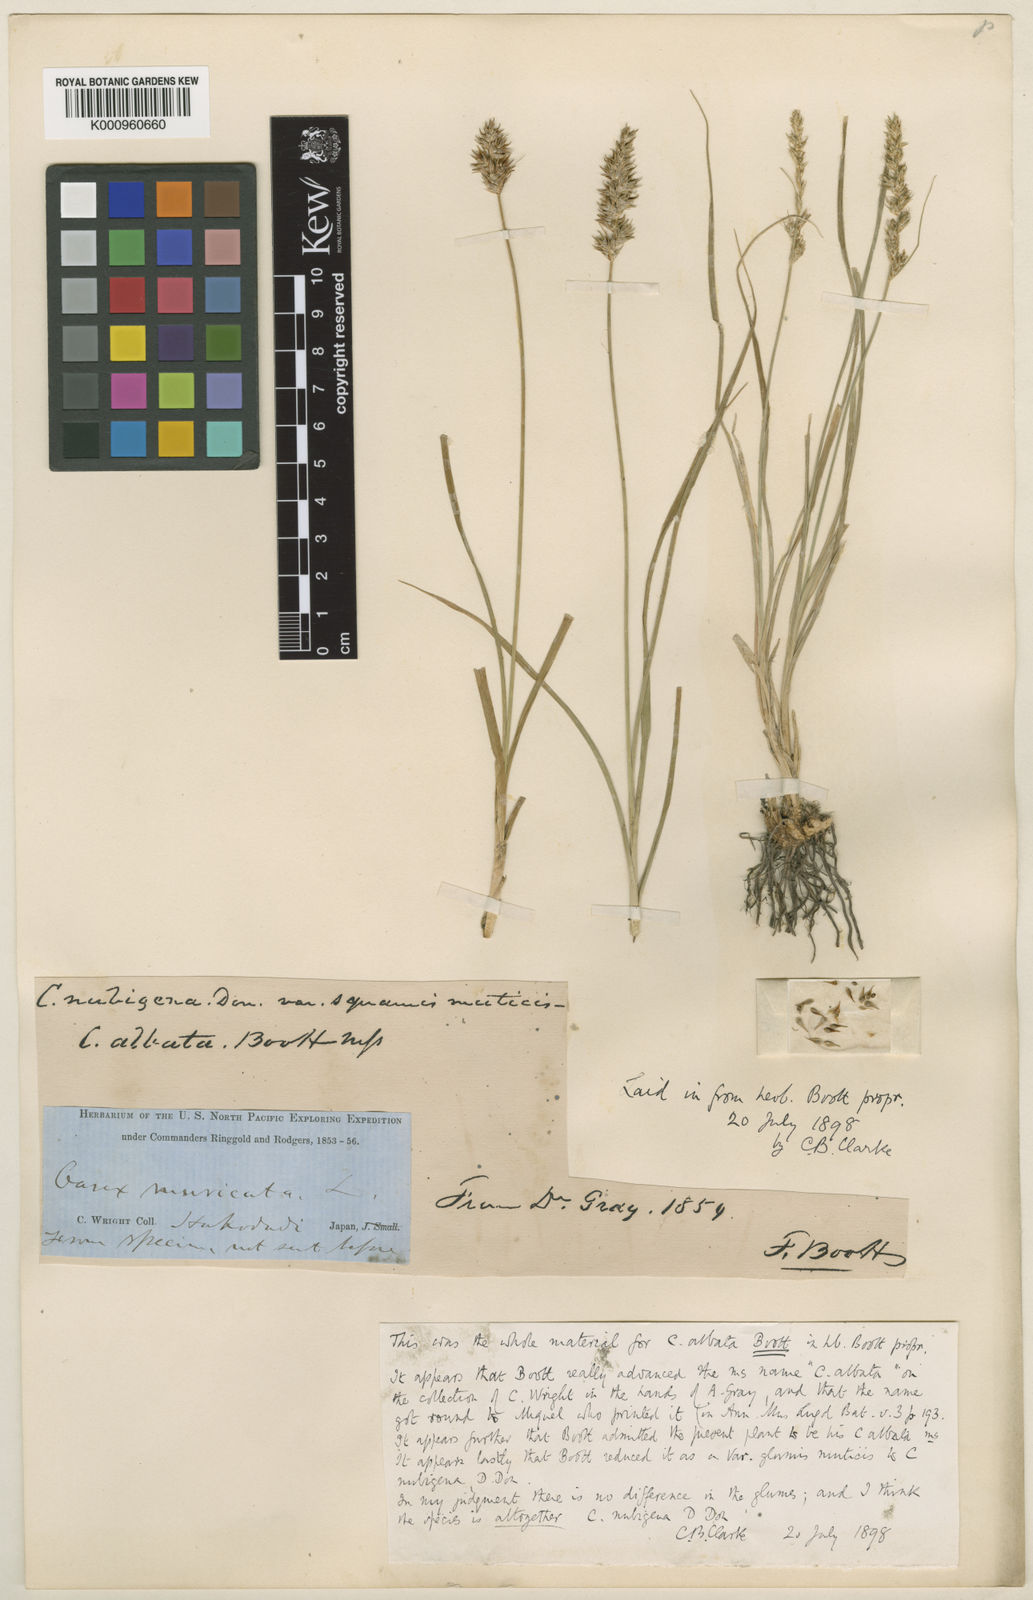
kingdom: Plantae
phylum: Tracheophyta
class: Liliopsida
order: Poales
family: Cyperaceae
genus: Carex
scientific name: Carex nubigena
